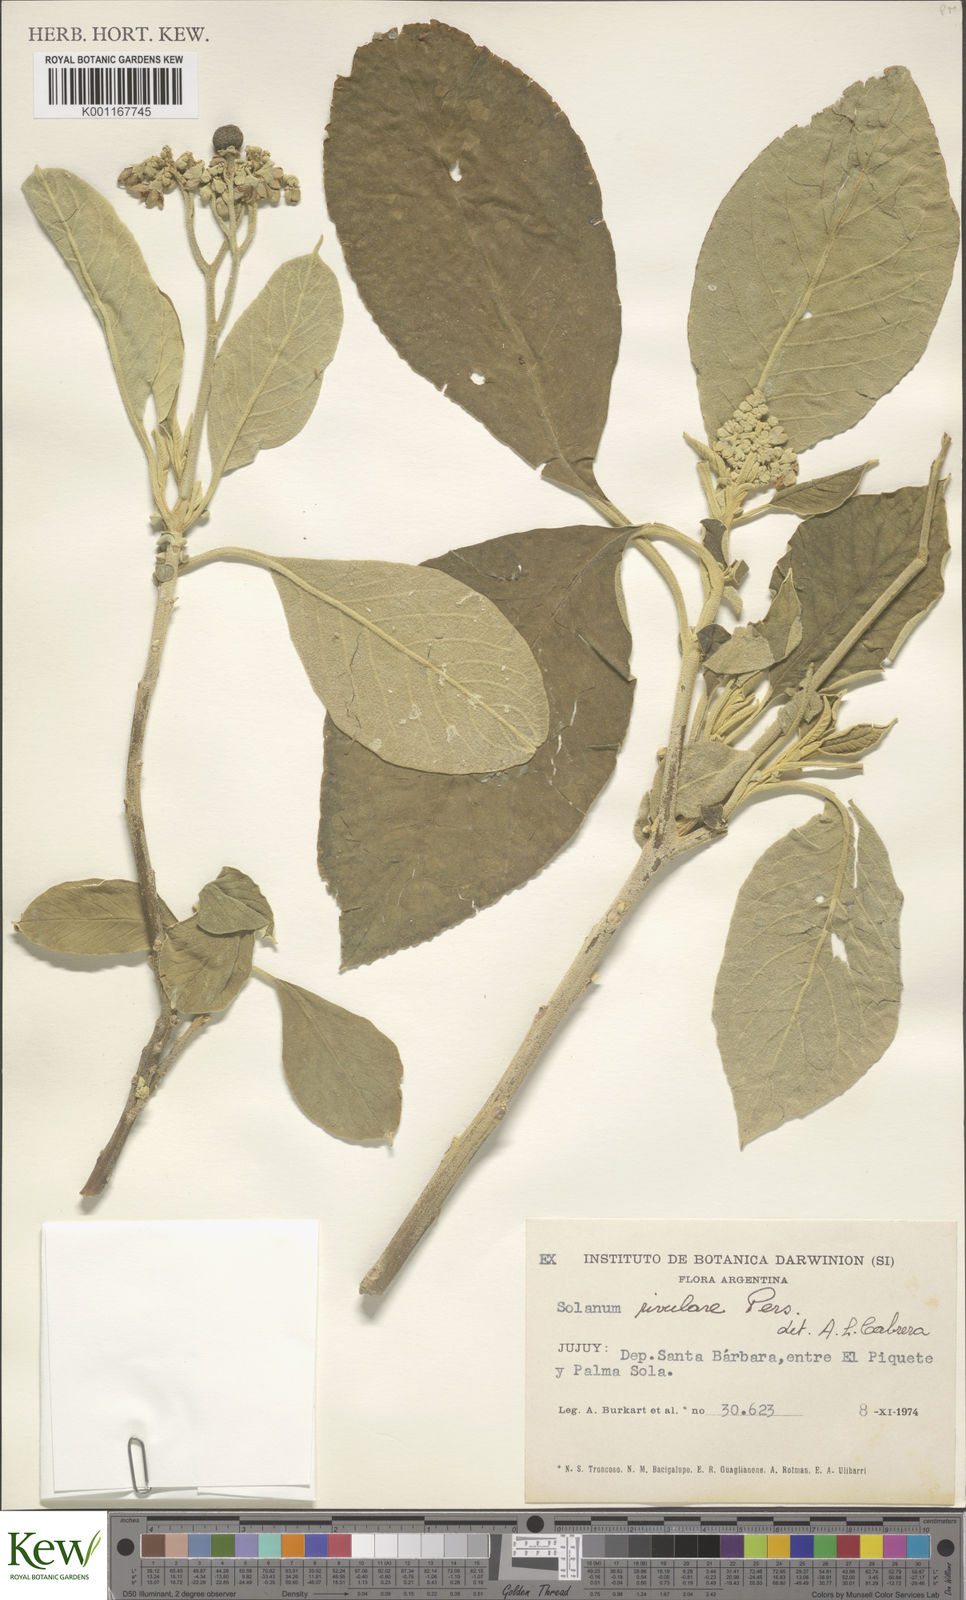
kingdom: Plantae
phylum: Tracheophyta
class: Magnoliopsida
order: Solanales
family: Solanaceae
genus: Solanum
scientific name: Solanum
